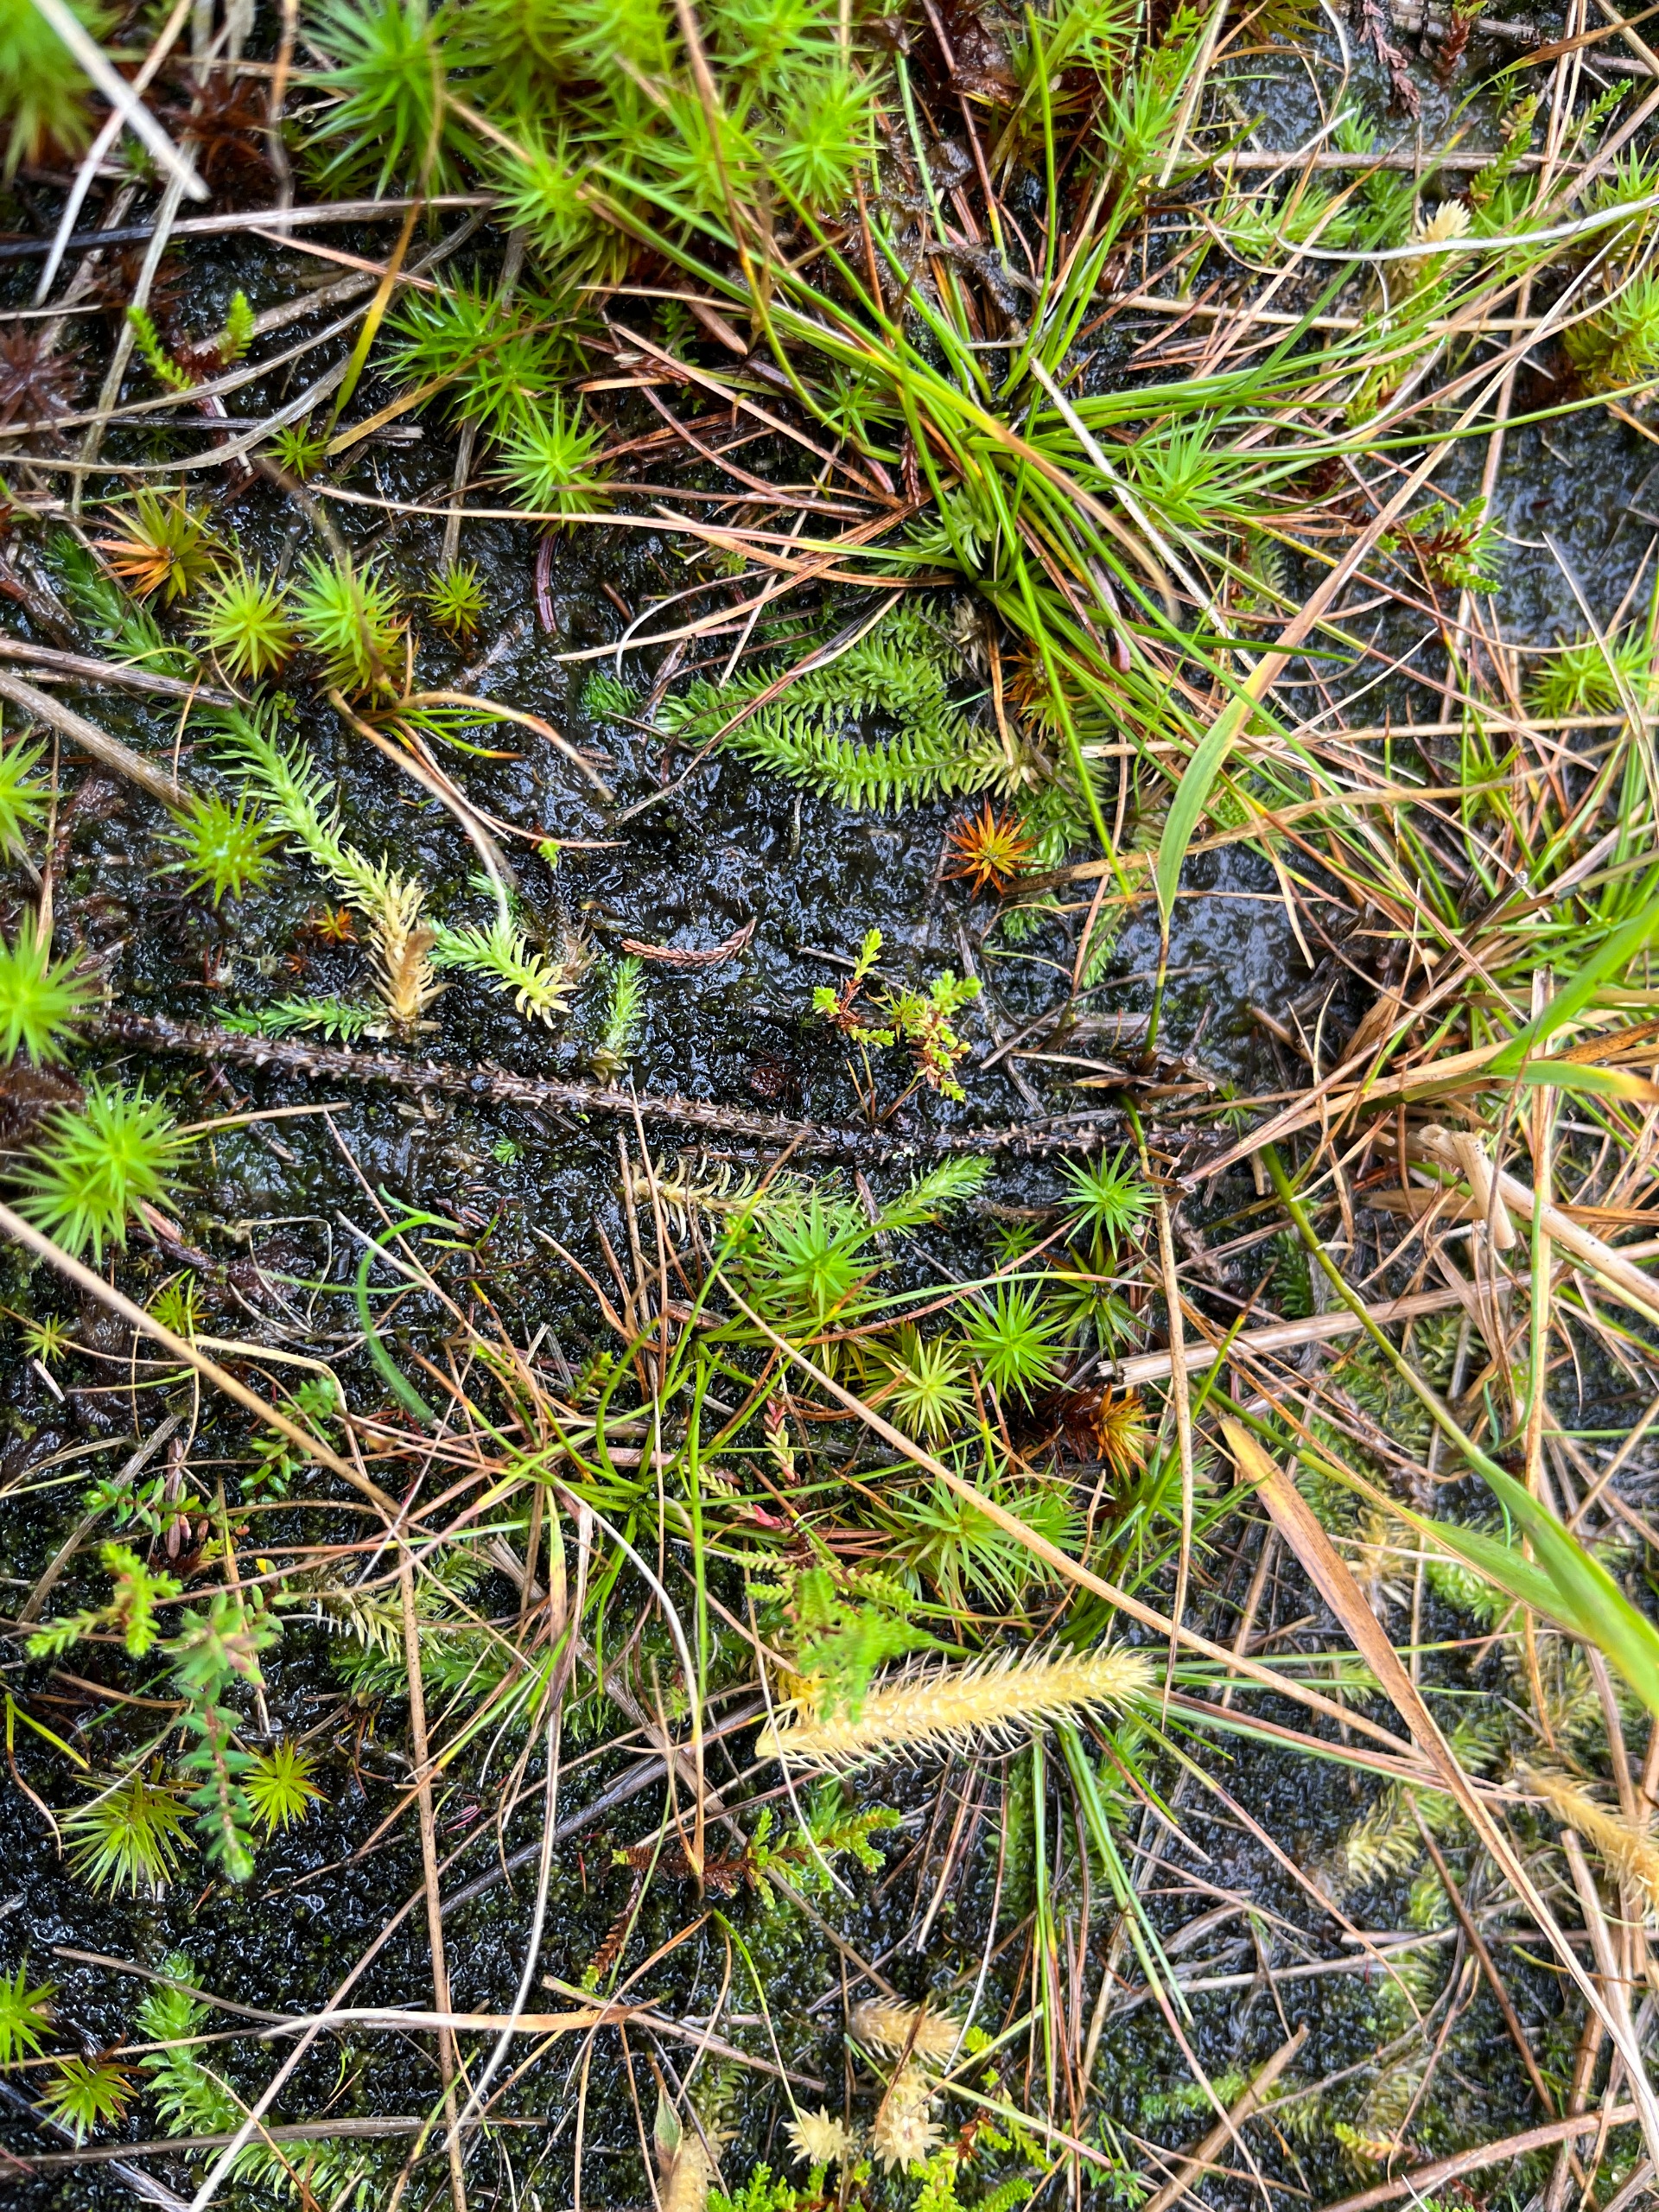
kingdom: Plantae
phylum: Tracheophyta
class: Lycopodiopsida
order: Lycopodiales
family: Lycopodiaceae
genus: Lycopodiella
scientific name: Lycopodiella inundata
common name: Liden ulvefod
